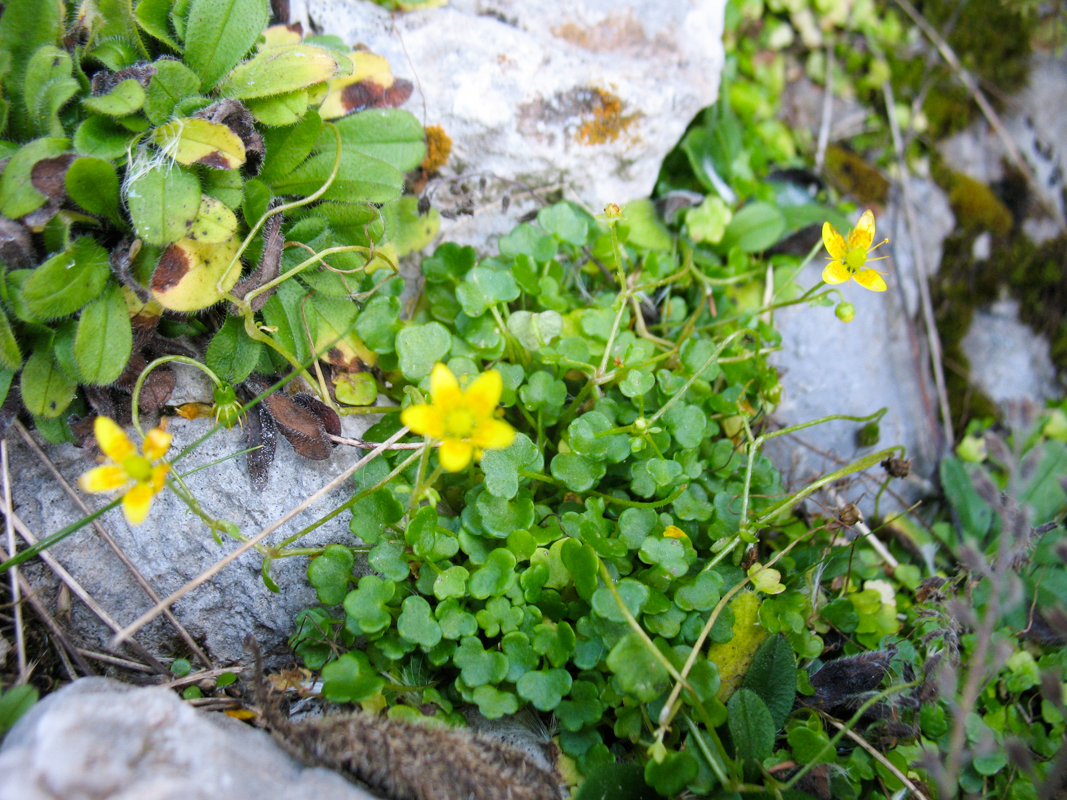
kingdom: Plantae
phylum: Tracheophyta
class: Magnoliopsida
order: Saxifragales
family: Saxifragaceae
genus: Saxifraga
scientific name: Saxifraga sibthorpii
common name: Yellow saxifrage
